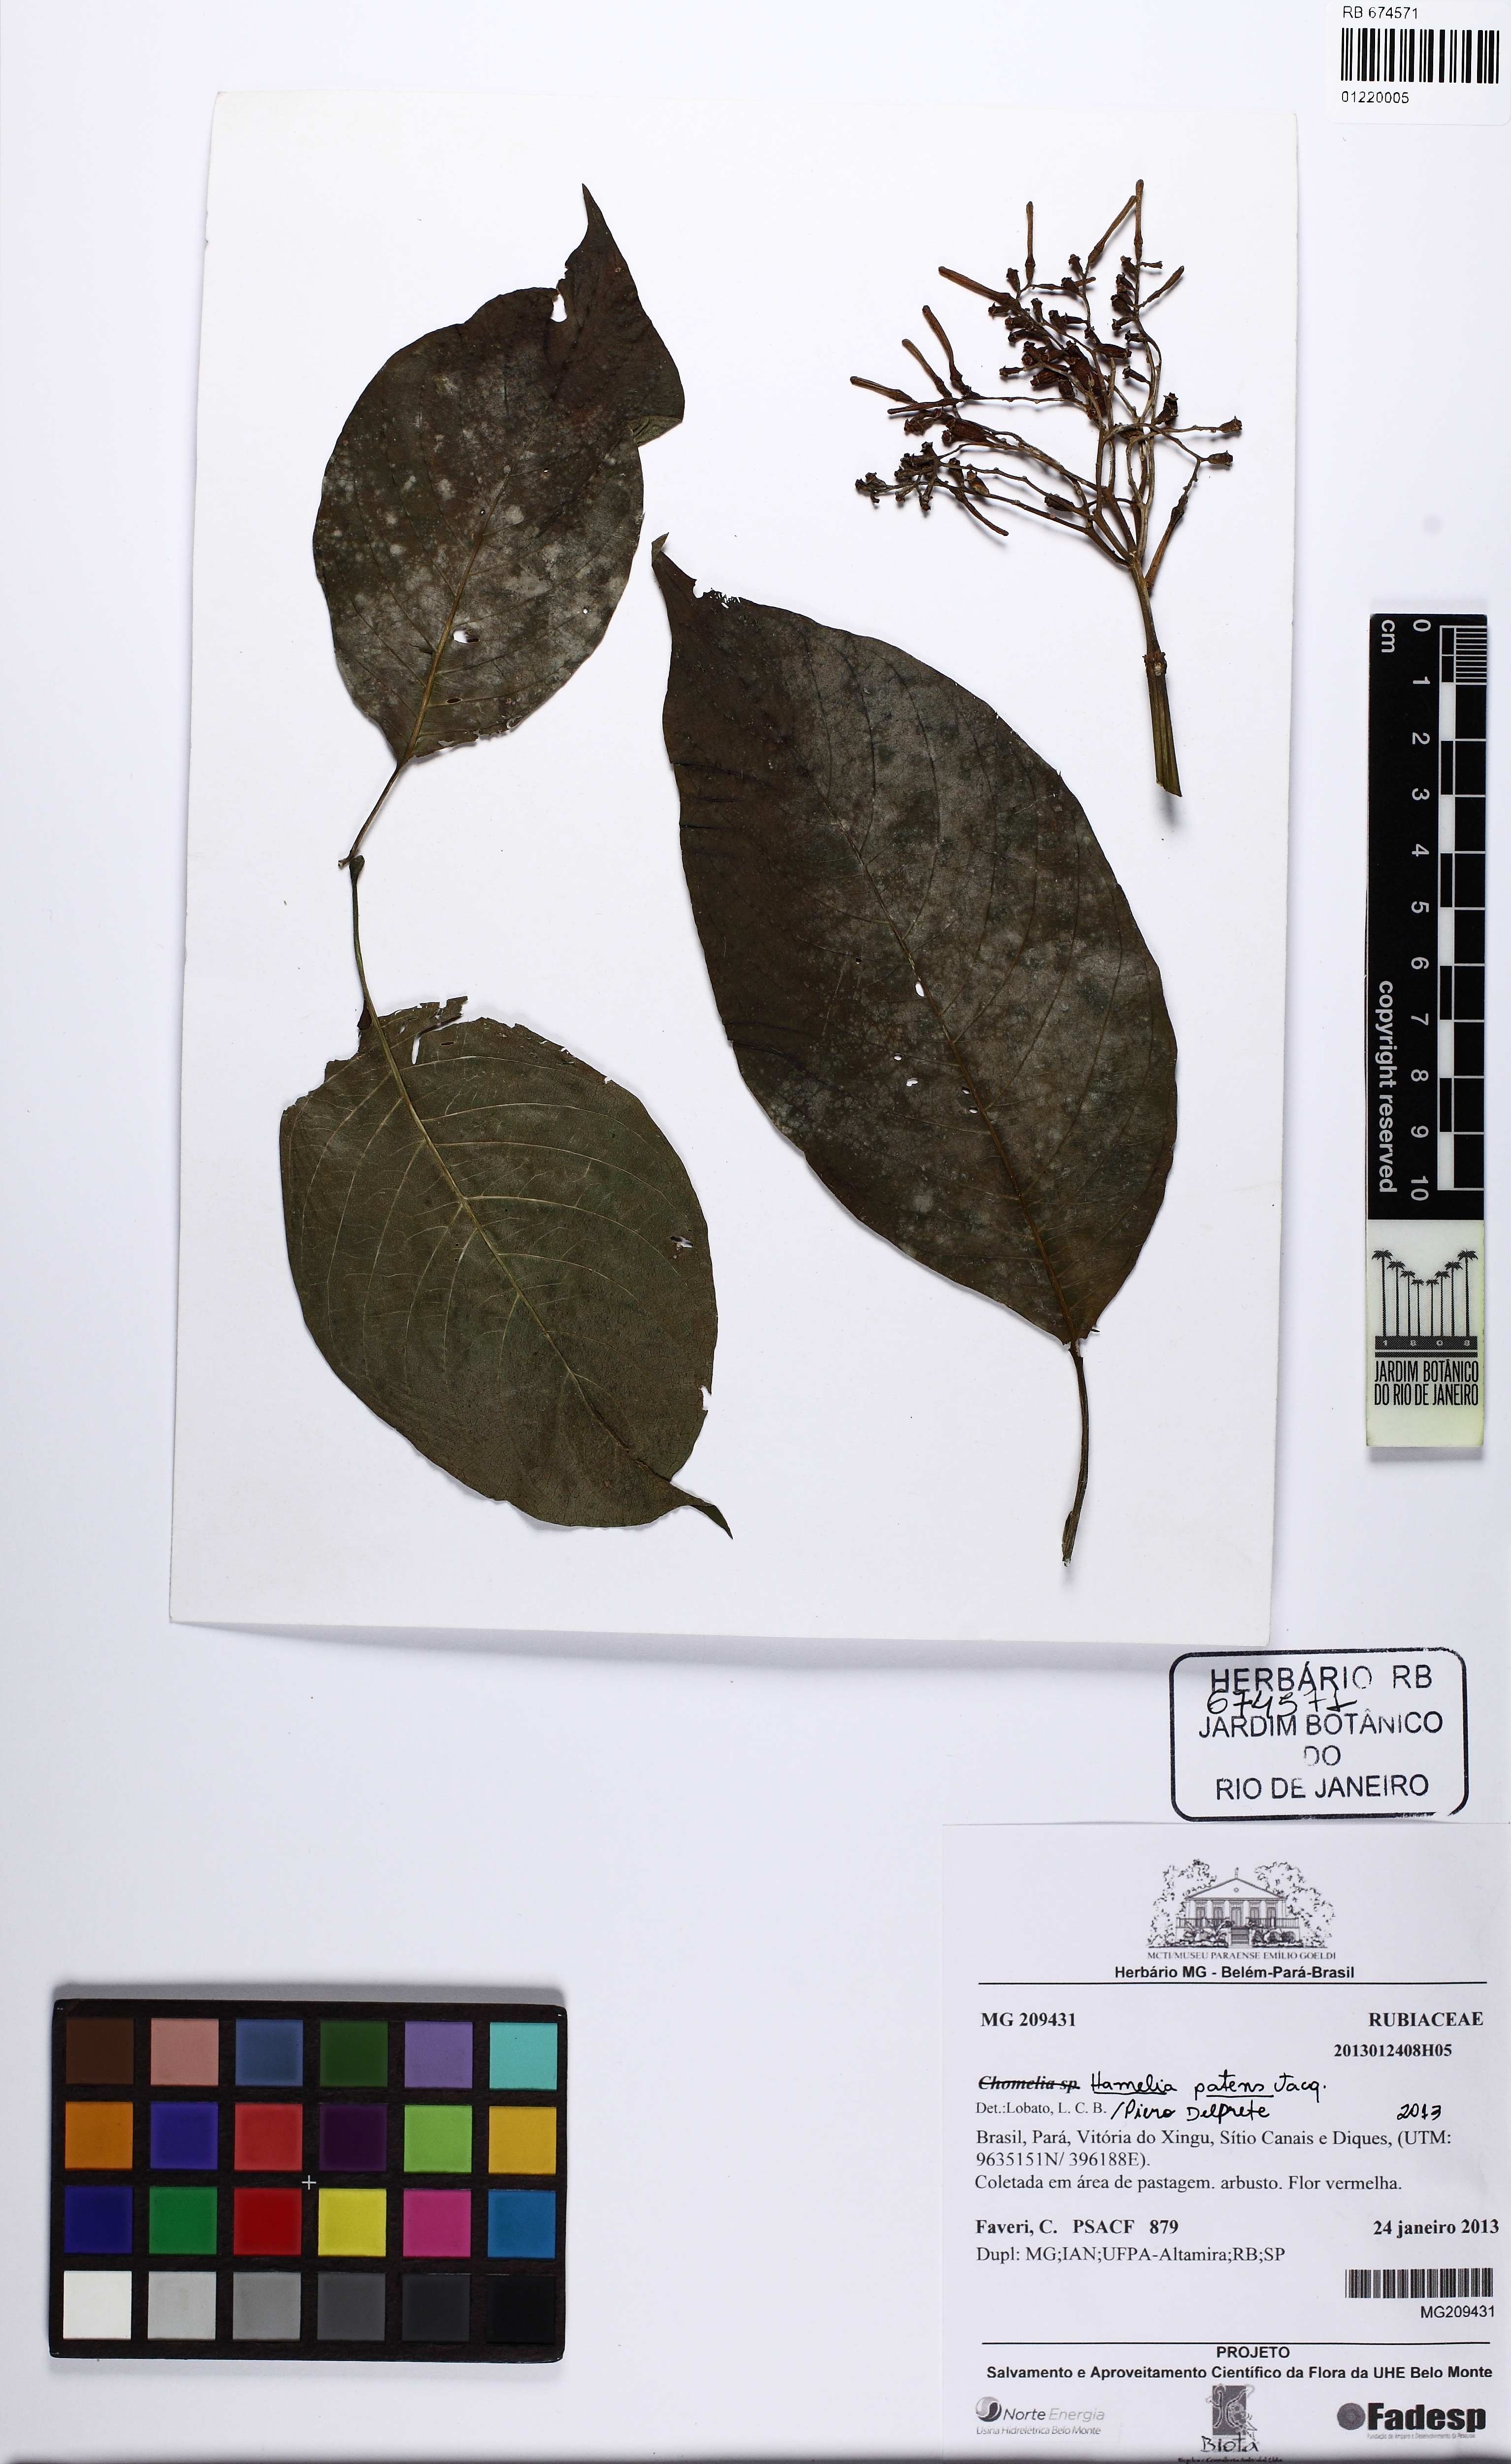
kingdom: Plantae
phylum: Tracheophyta
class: Magnoliopsida
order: Gentianales
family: Rubiaceae
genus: Hamelia
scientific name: Hamelia patens
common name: Redhead
